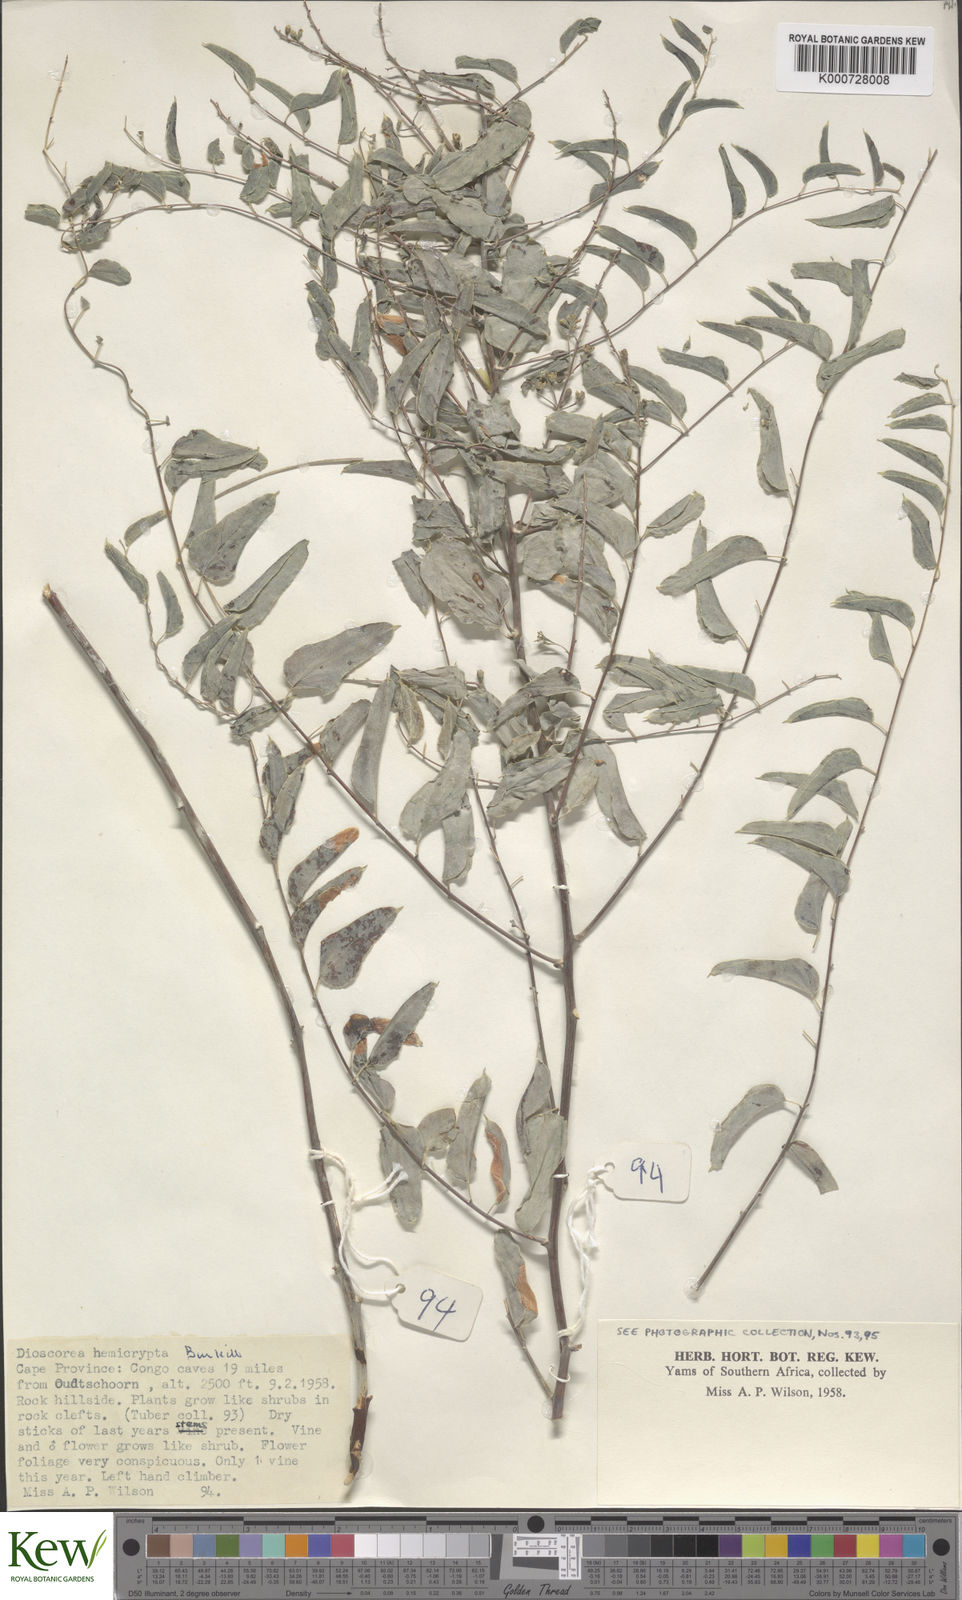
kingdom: Plantae
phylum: Tracheophyta
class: Liliopsida
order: Dioscoreales
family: Dioscoreaceae
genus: Dioscorea
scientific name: Dioscorea hemicrypta
